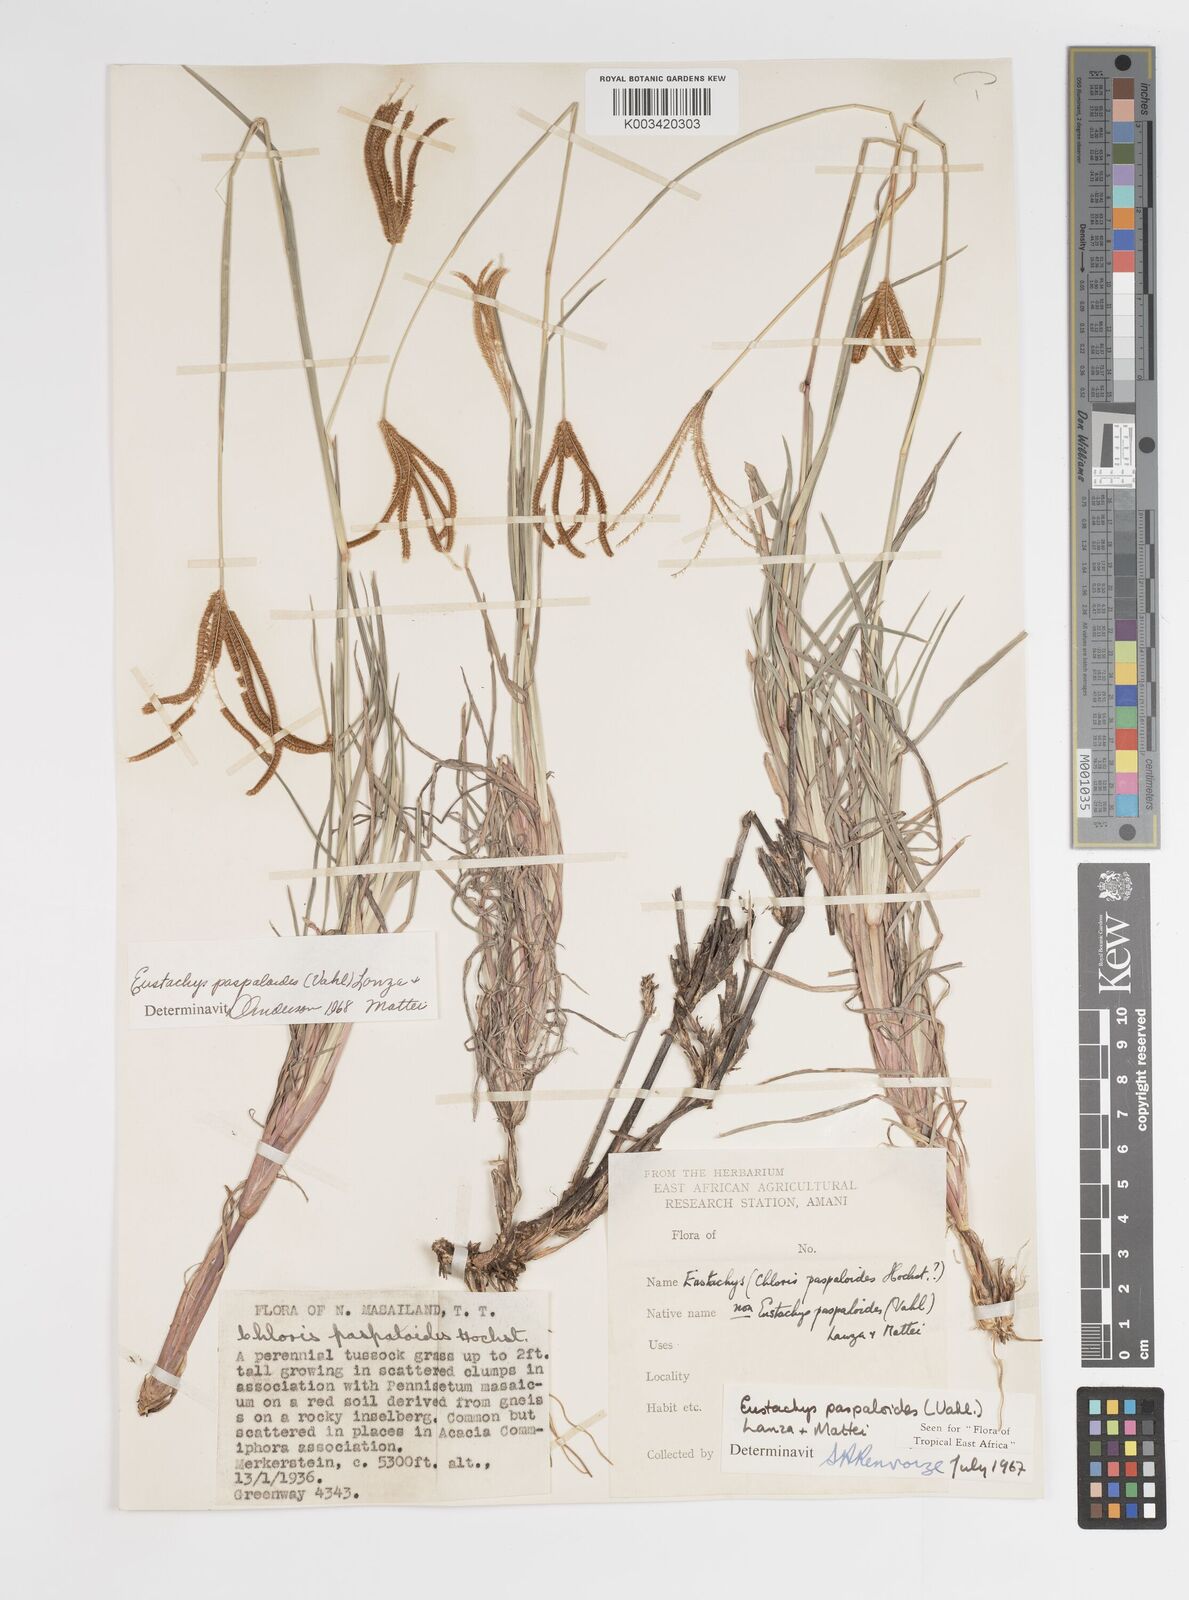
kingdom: Plantae
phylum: Tracheophyta
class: Liliopsida
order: Poales
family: Poaceae
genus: Eustachys
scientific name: Eustachys
